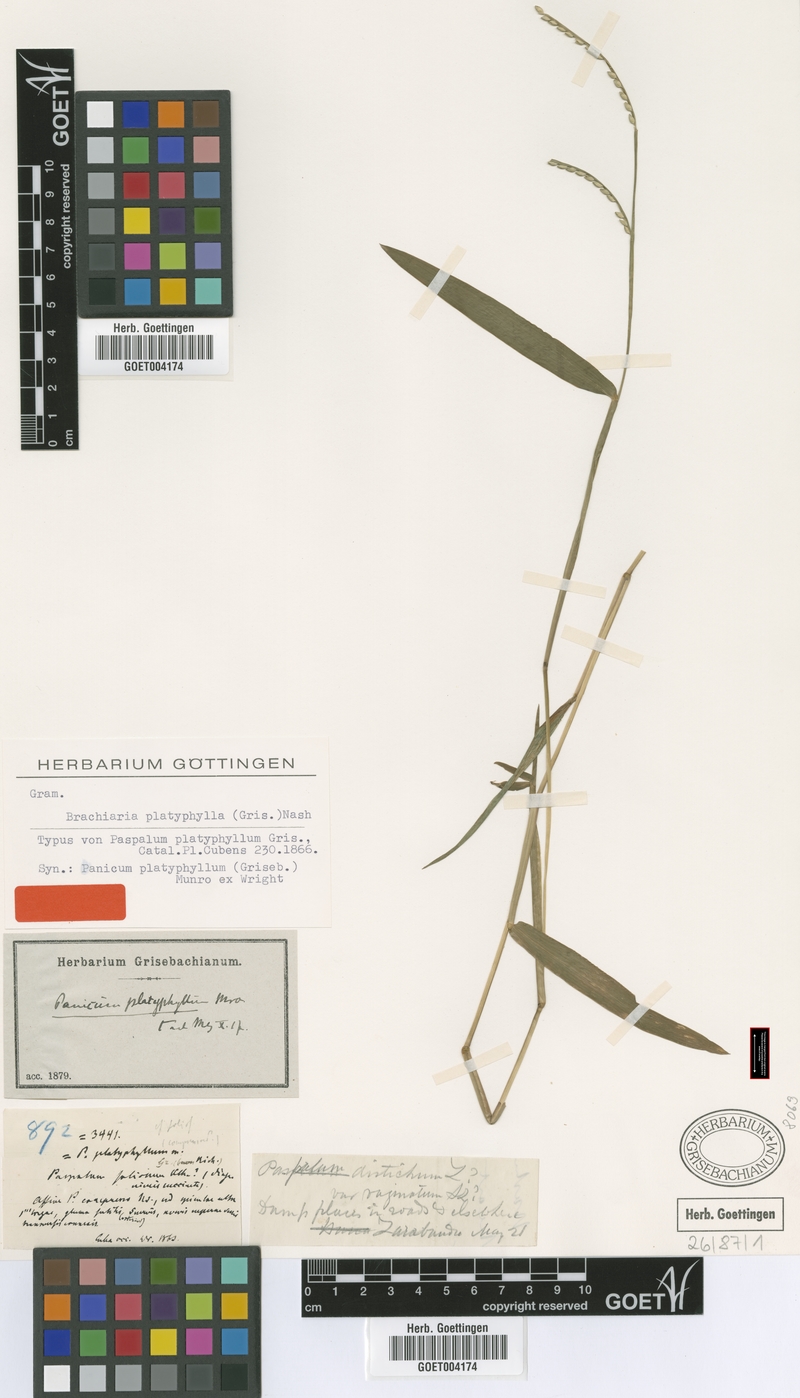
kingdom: Plantae
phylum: Tracheophyta
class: Liliopsida
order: Poales
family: Poaceae
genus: Urochloa
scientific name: Urochloa platyphylla
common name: White para grass
